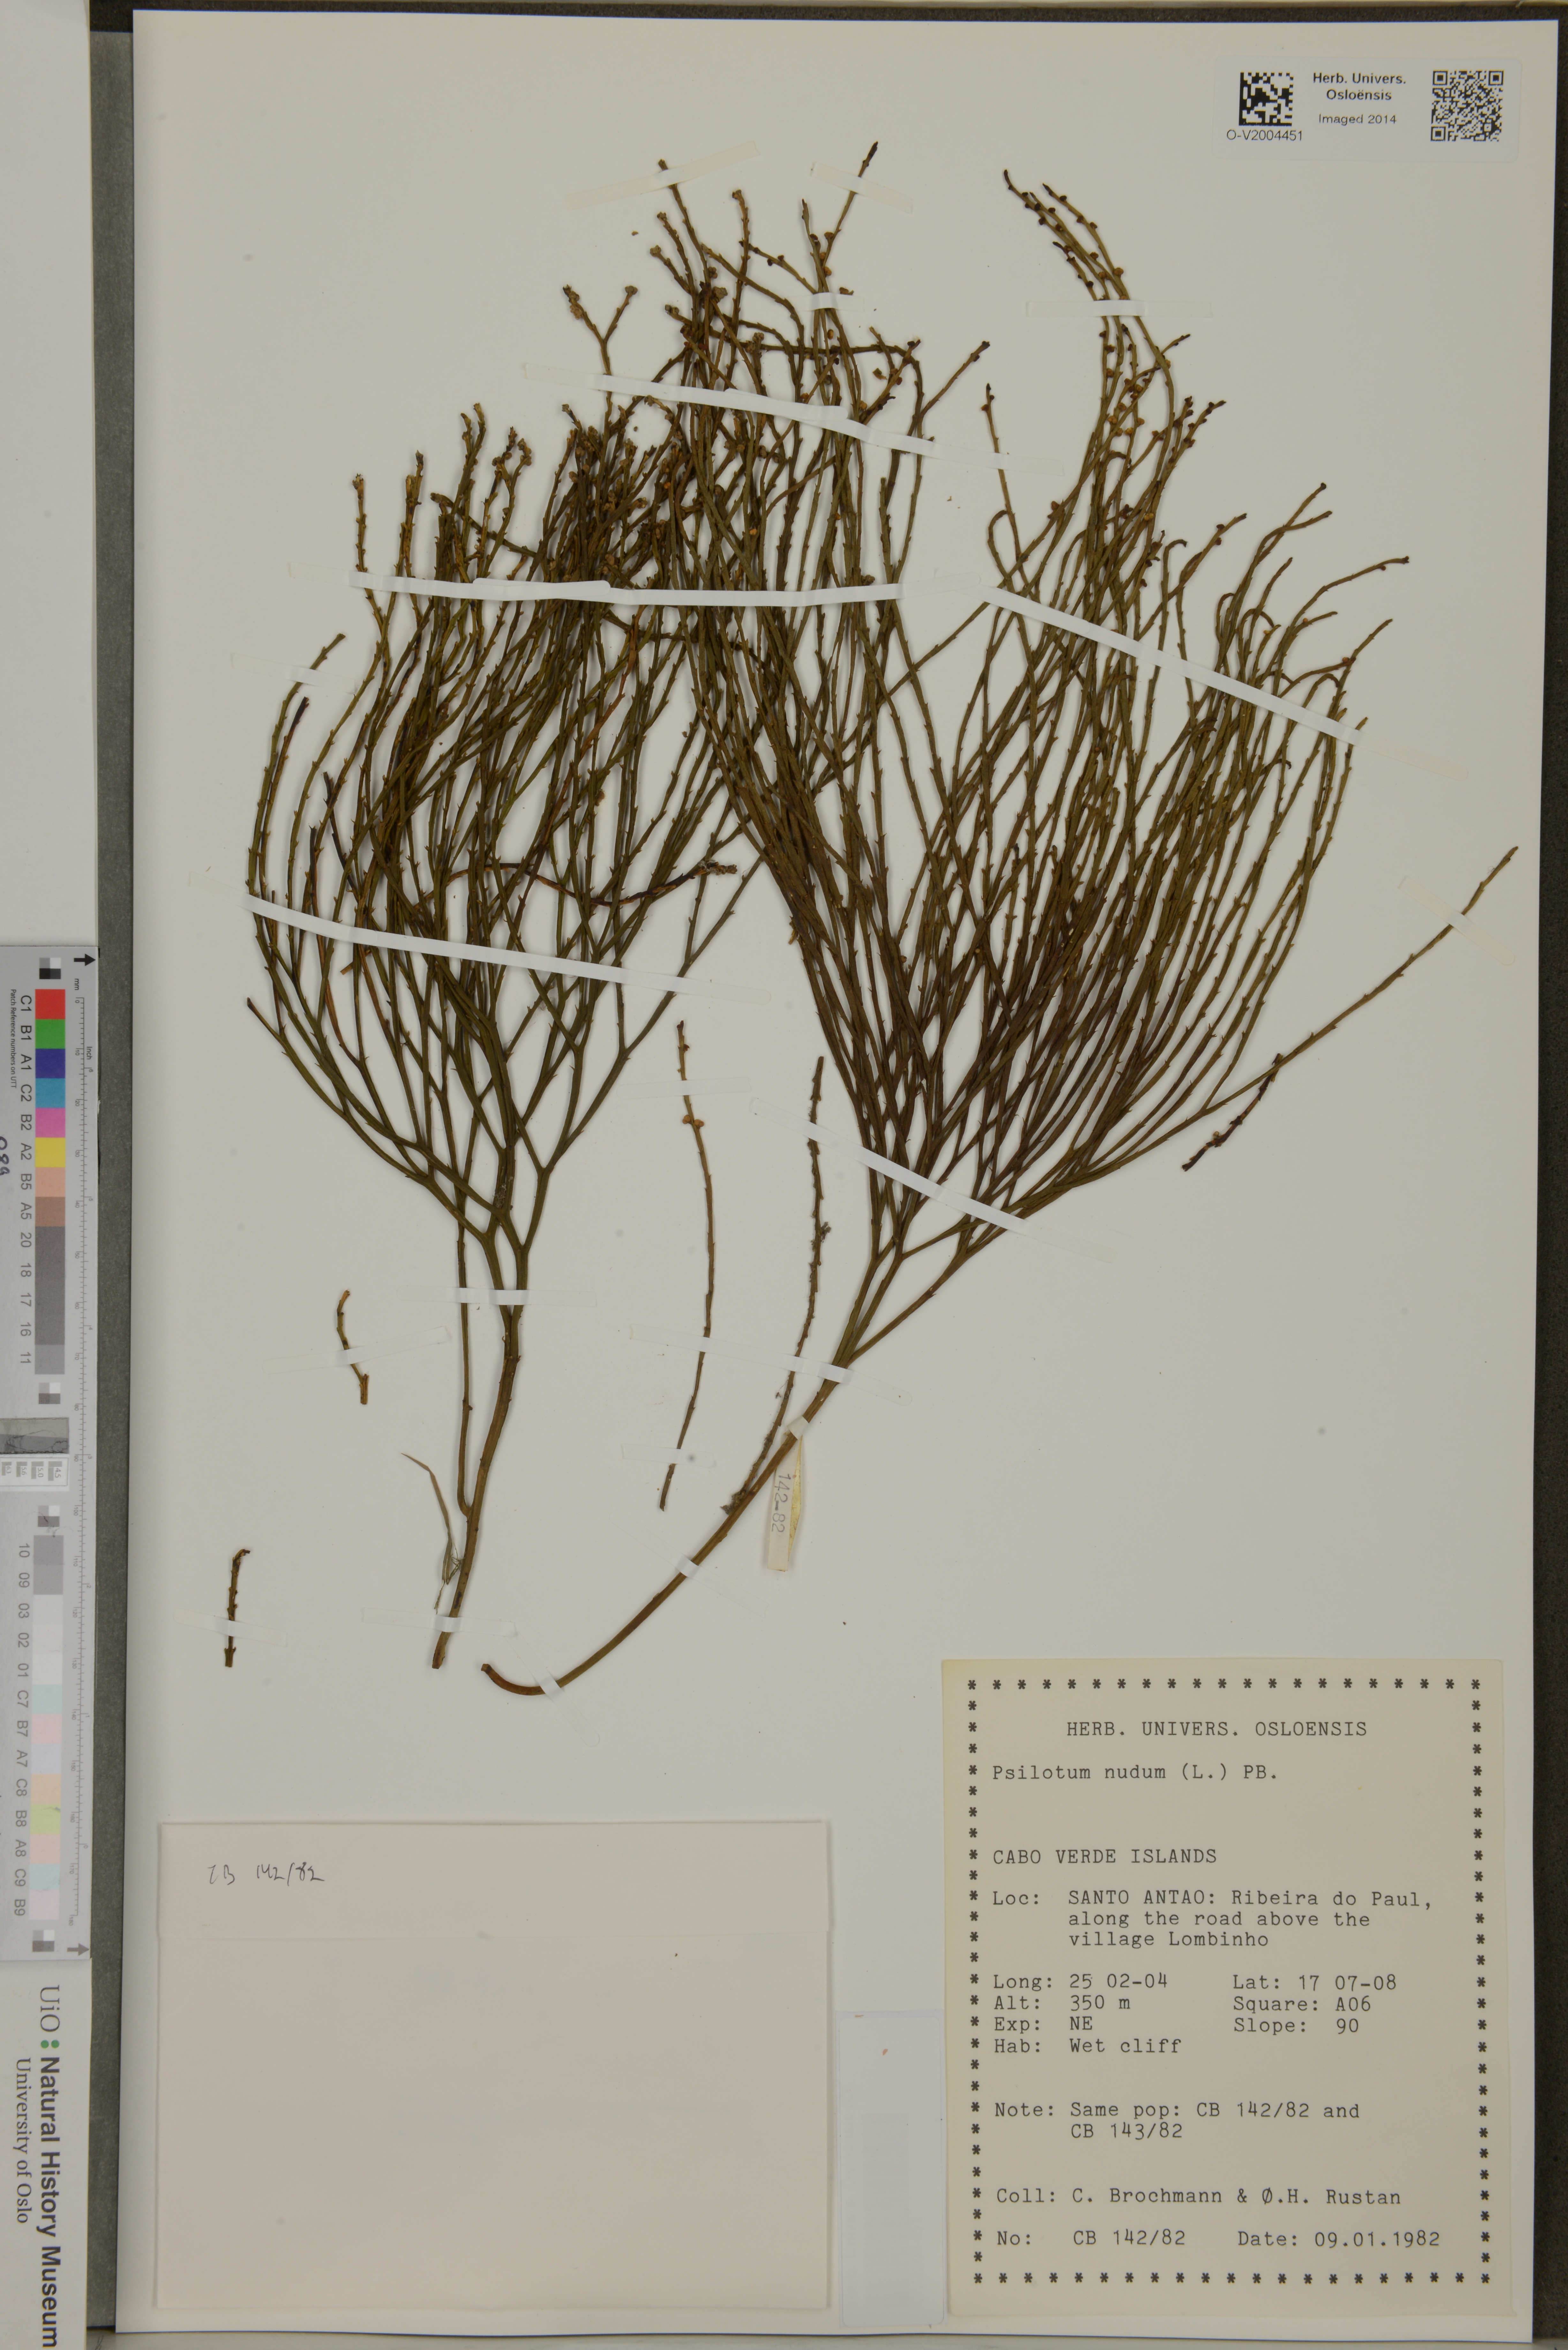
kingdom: Plantae
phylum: Tracheophyta
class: Polypodiopsida
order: Psilotales
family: Psilotaceae
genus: Psilotum
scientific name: Psilotum nudum
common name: Skeleton fork fern
